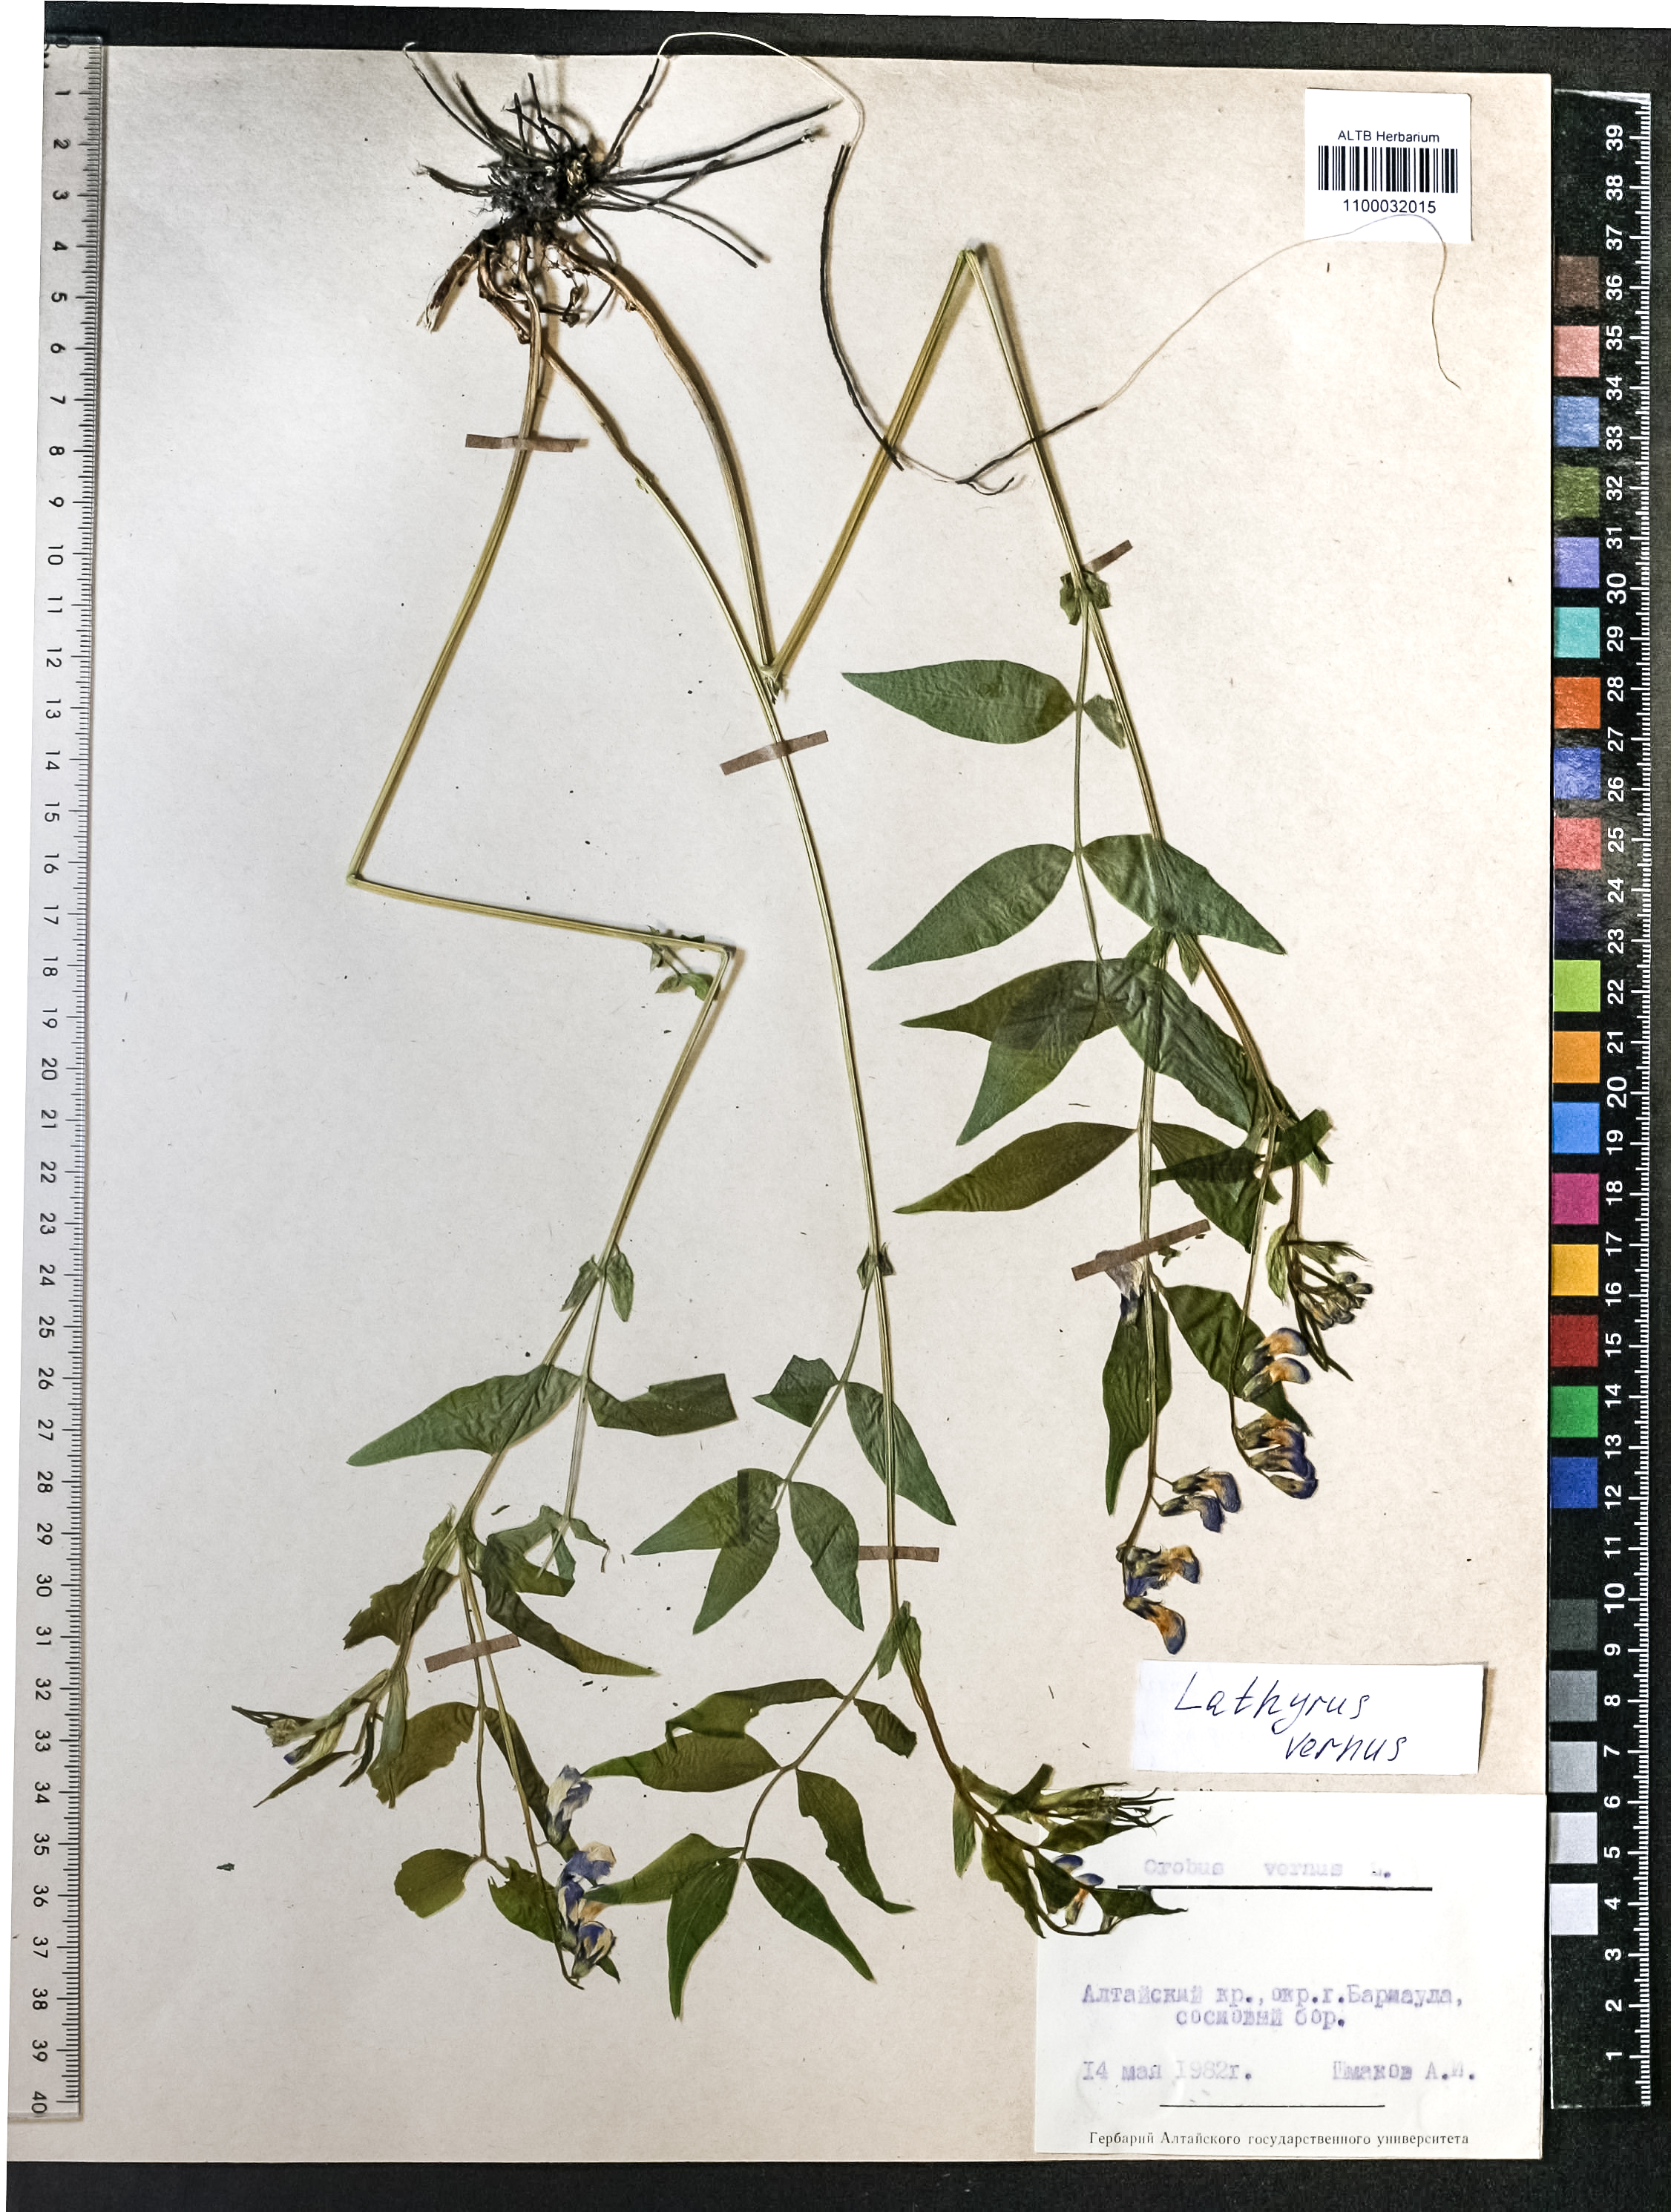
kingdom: Plantae
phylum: Tracheophyta
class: Magnoliopsida
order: Fabales
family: Fabaceae
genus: Lathyrus
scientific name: Lathyrus vernus
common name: Spring pea
